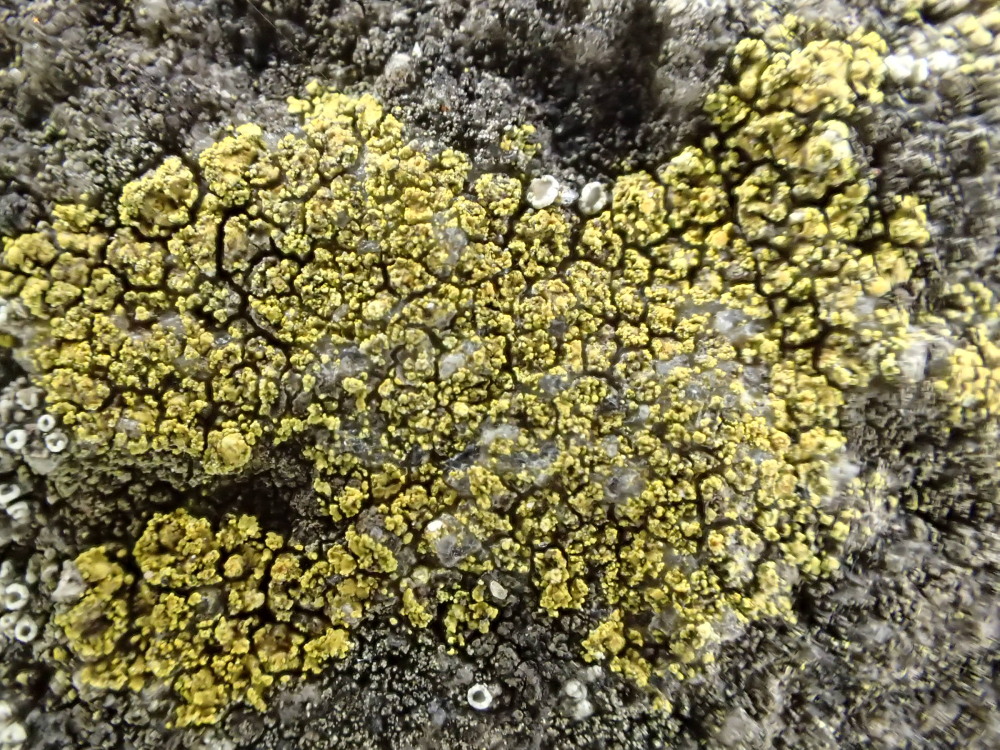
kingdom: Fungi
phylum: Ascomycota
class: Candelariomycetes
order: Candelariales
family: Candelariaceae
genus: Candelariella
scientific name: Candelariella vitellina
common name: almindelig æggeblommelav
